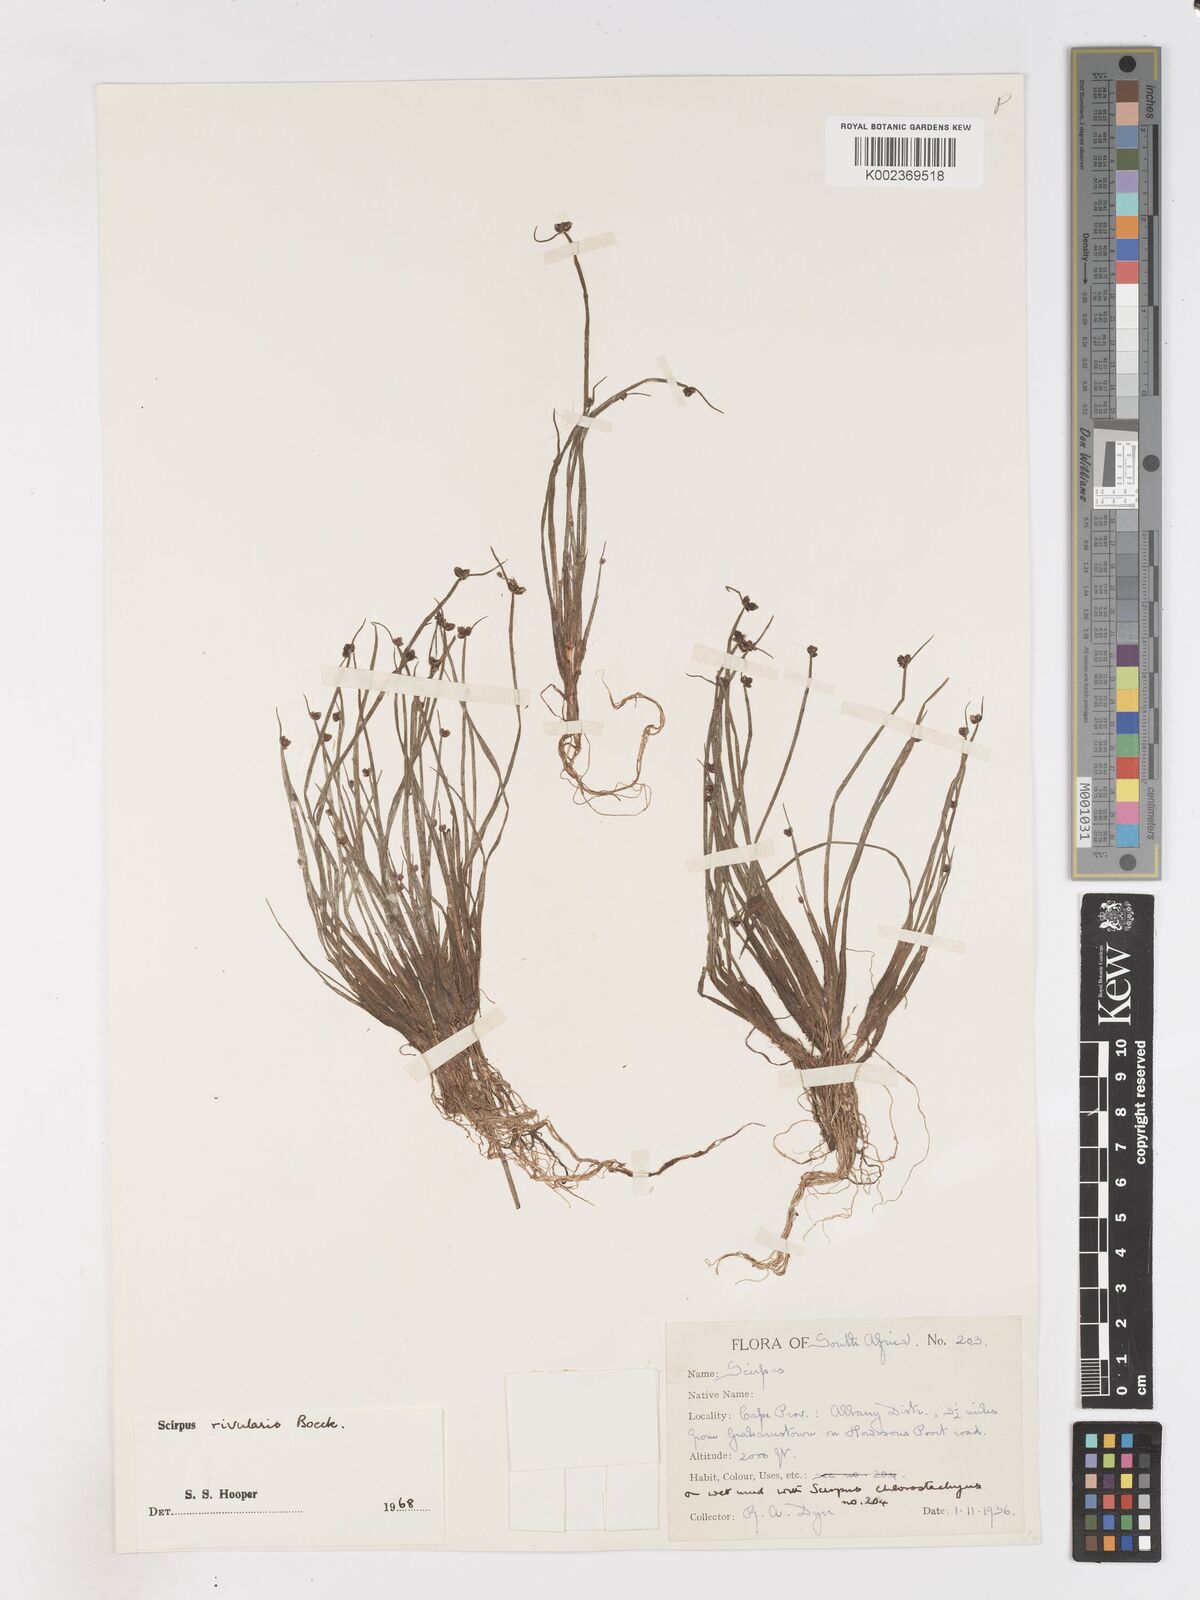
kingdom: Plantae
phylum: Tracheophyta
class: Liliopsida
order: Poales
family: Cyperaceae
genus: Isolepis
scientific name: Isolepis natans
